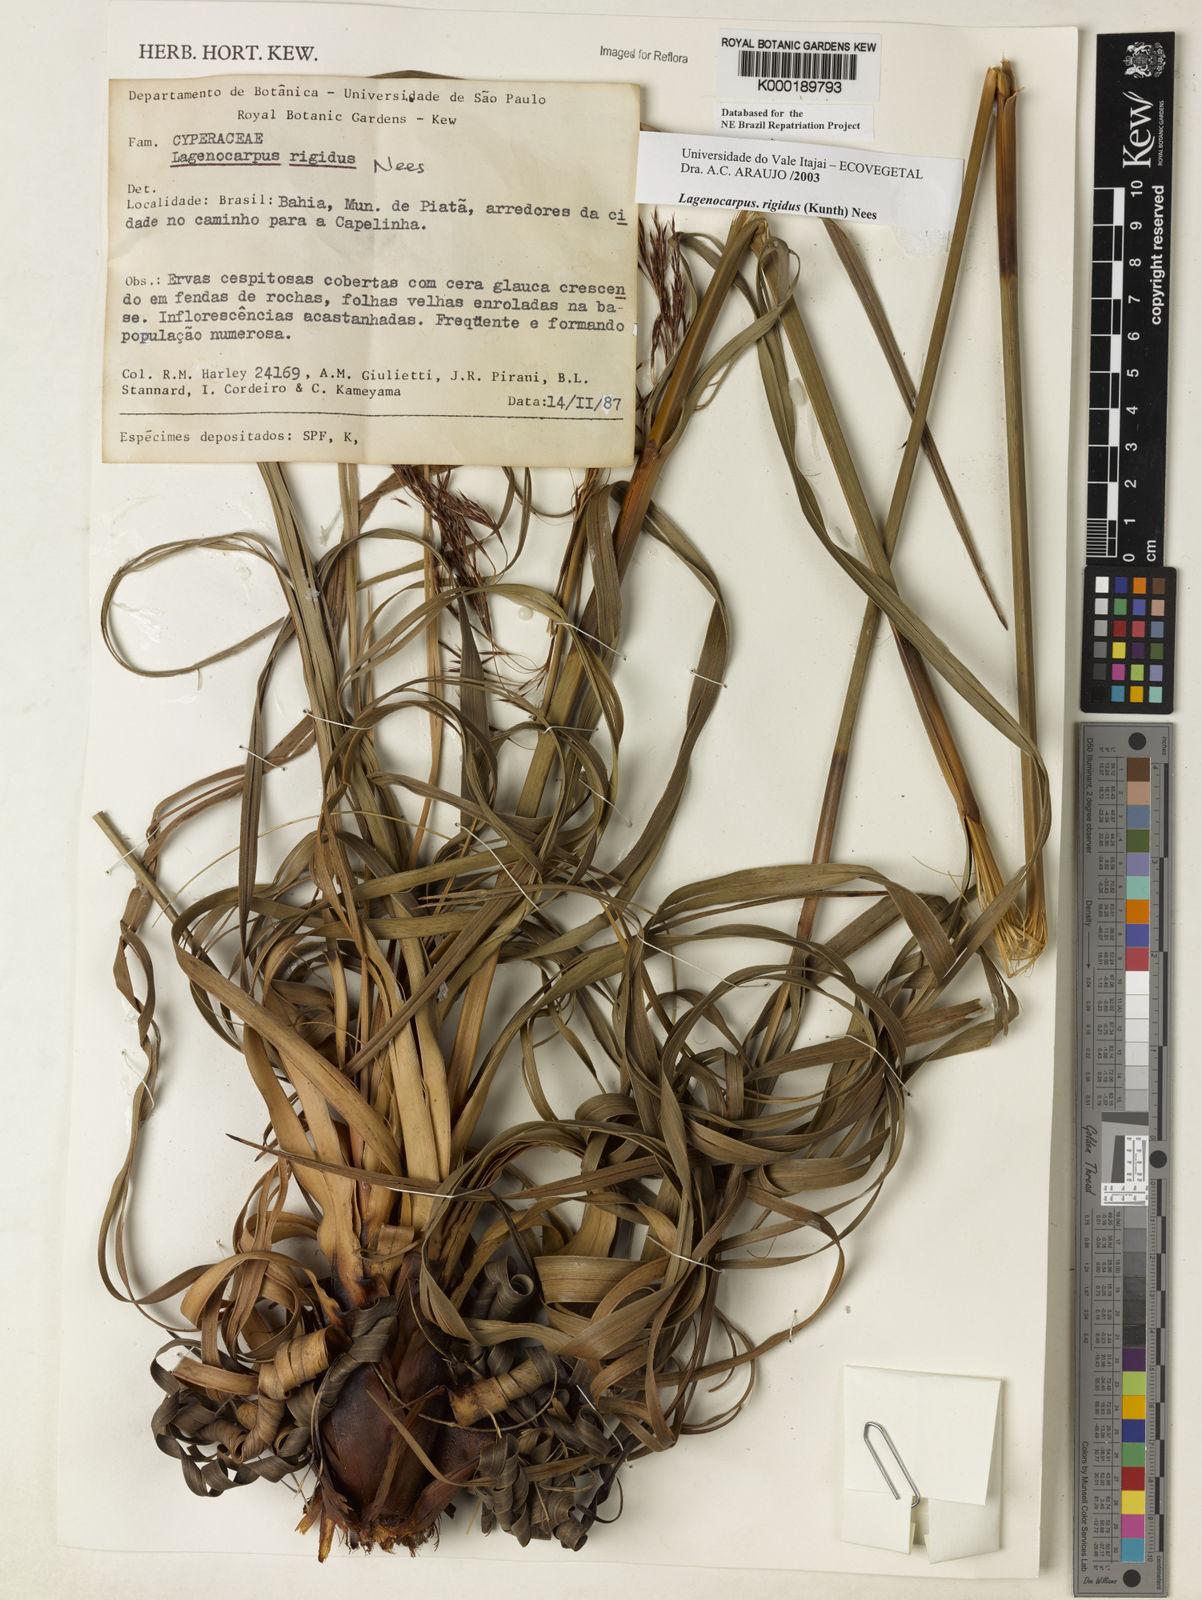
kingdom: Plantae
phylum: Tracheophyta
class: Liliopsida
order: Poales
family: Cyperaceae
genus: Lagenocarpus
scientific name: Lagenocarpus rigidus
